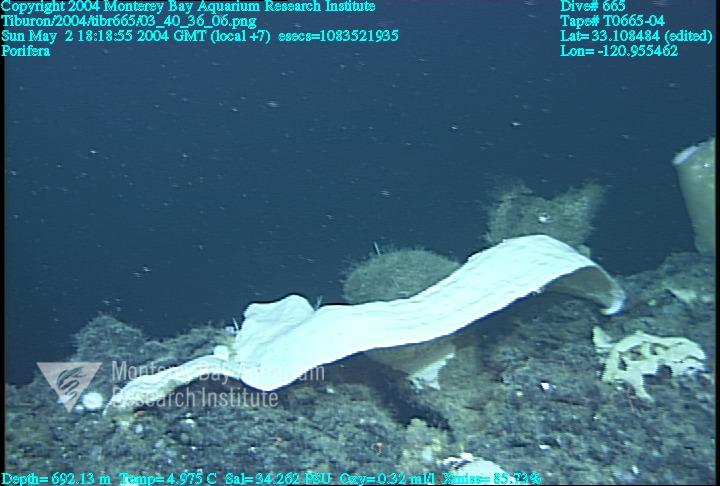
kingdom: Animalia
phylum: Porifera
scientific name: Porifera
